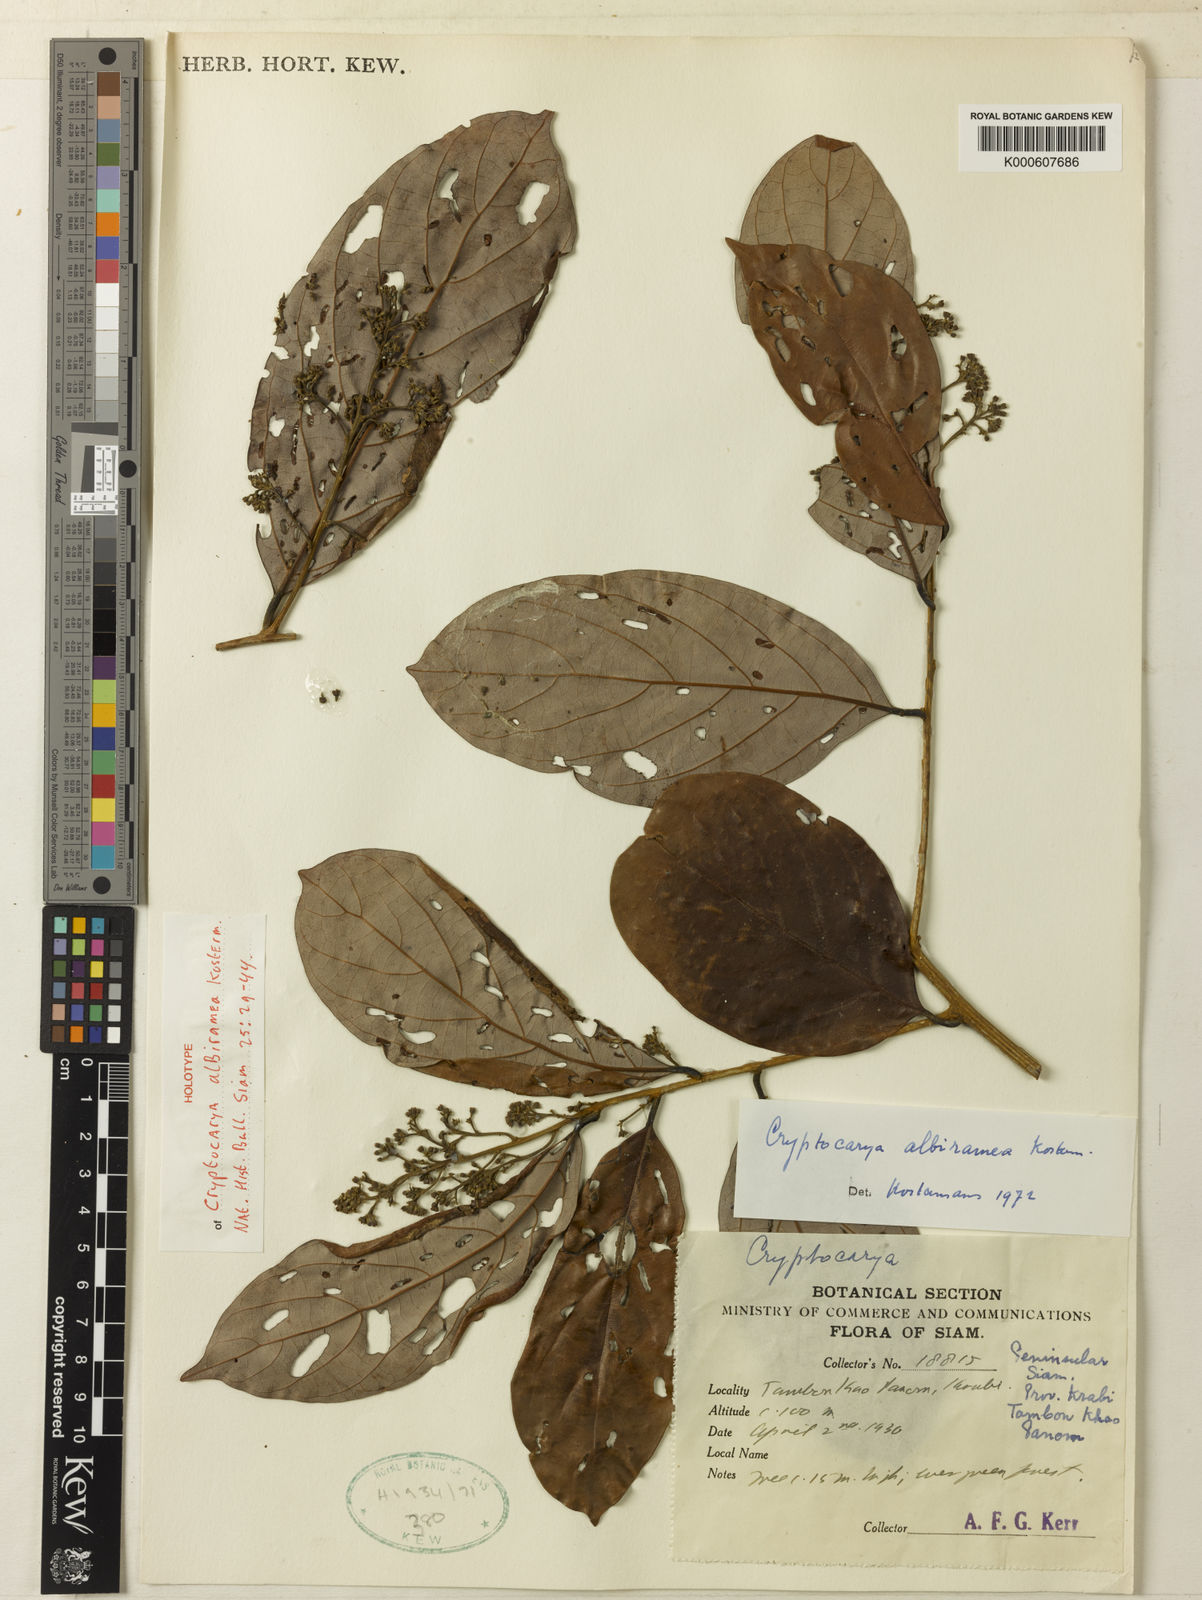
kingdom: Plantae
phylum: Tracheophyta
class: Magnoliopsida
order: Laurales
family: Lauraceae
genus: Cryptocarya
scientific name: Cryptocarya ferrea
